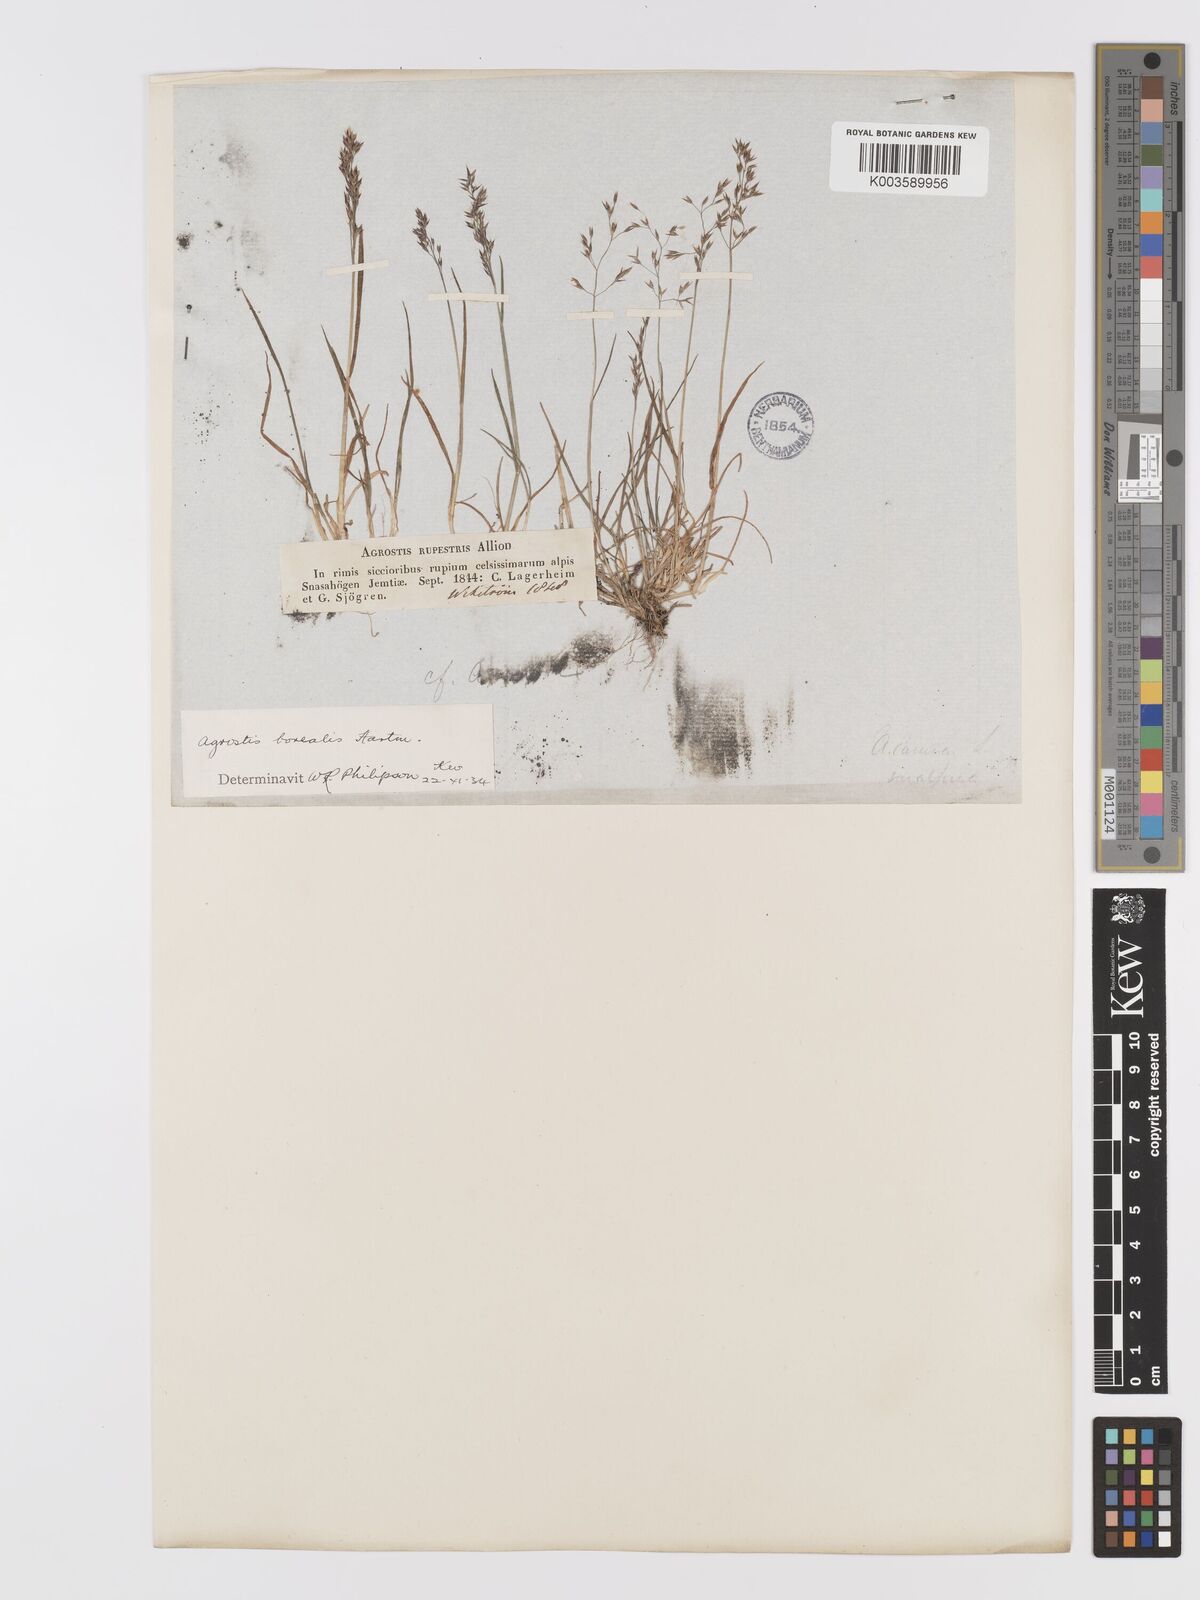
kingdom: Plantae
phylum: Tracheophyta
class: Liliopsida
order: Poales
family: Poaceae
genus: Agrostis
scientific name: Agrostis mertensii
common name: Northern bent
